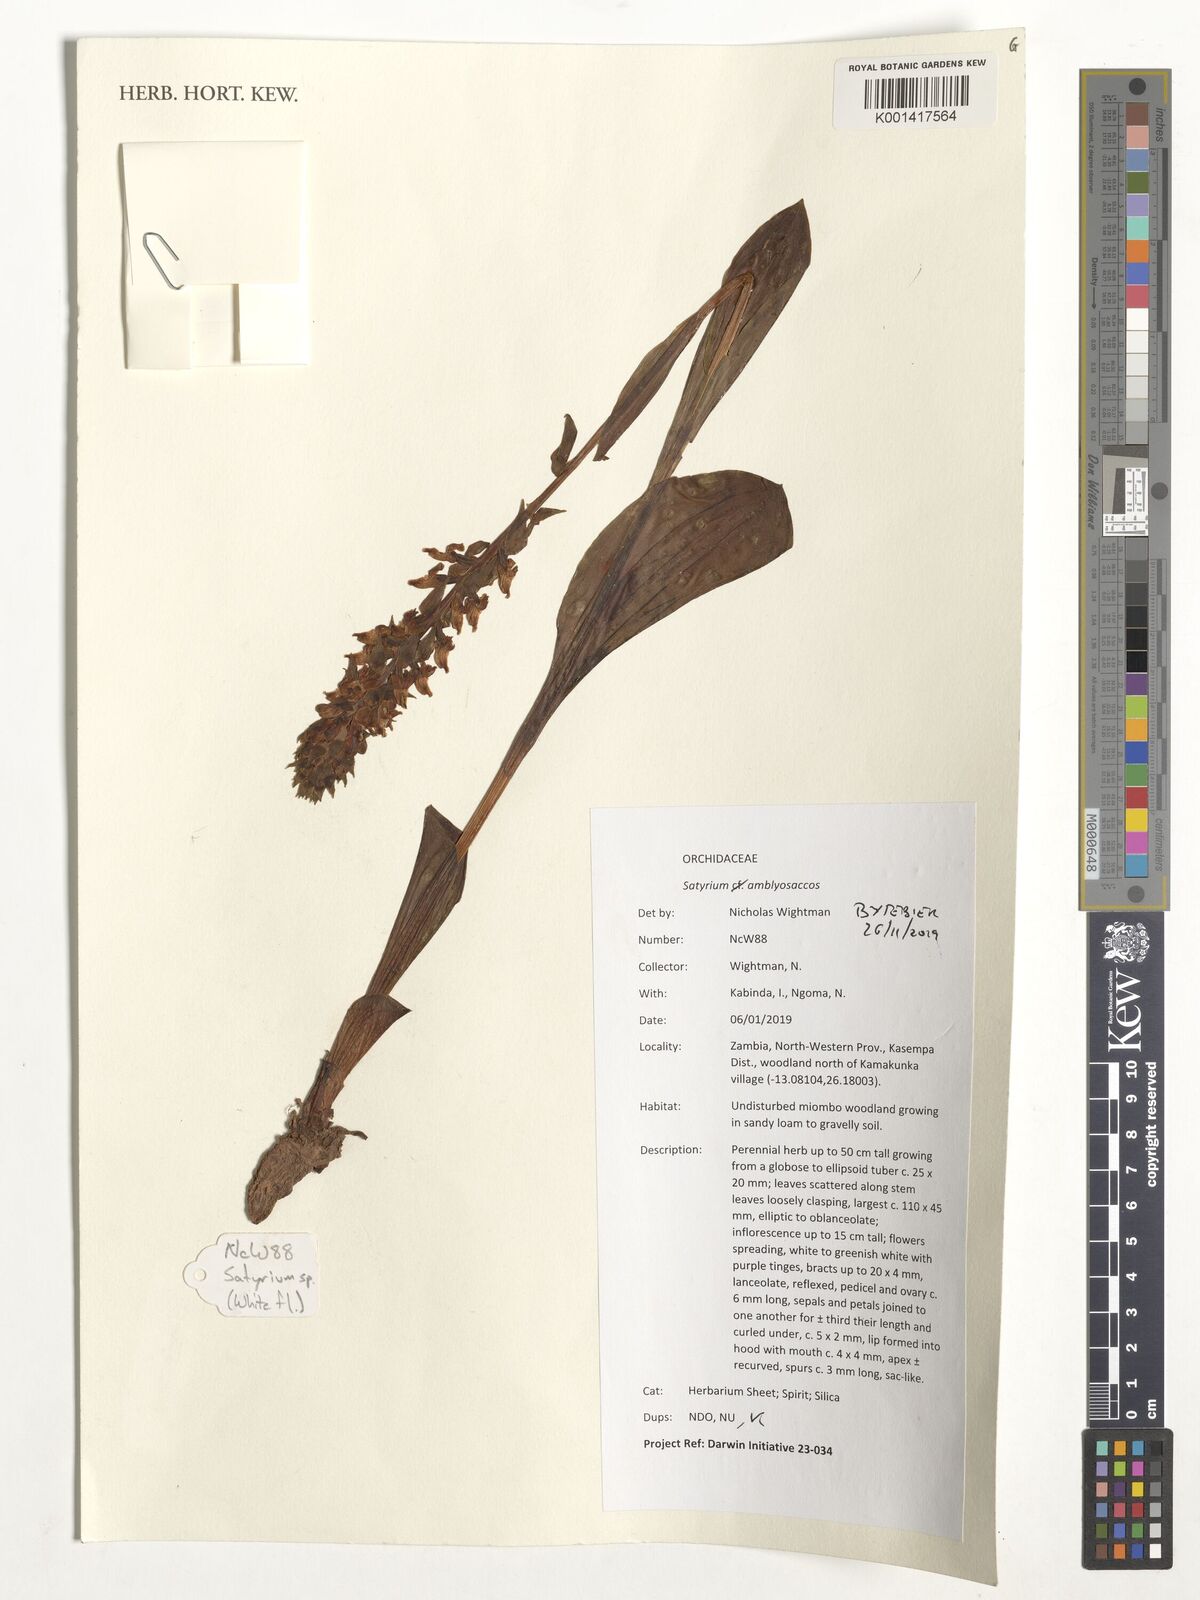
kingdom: Plantae
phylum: Tracheophyta
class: Liliopsida
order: Asparagales
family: Orchidaceae
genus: Satyrium
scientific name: Satyrium amblyosaccos
